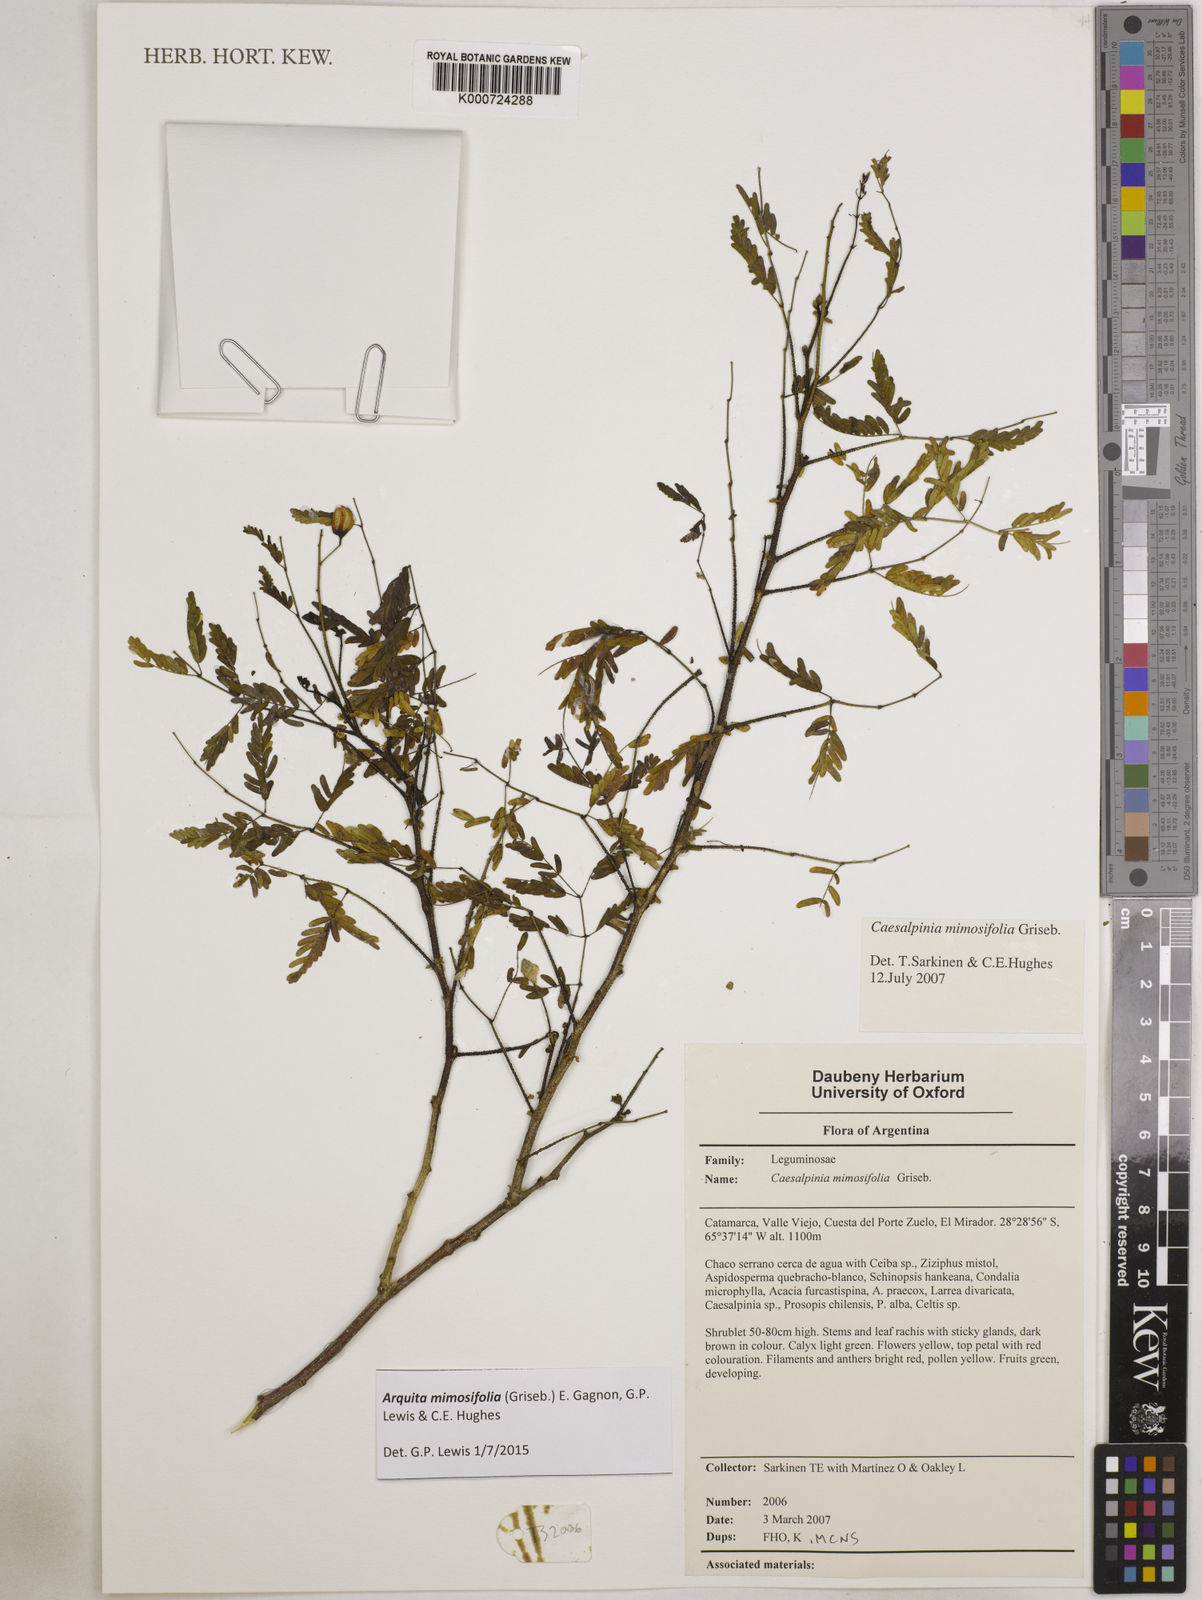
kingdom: Plantae
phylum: Tracheophyta
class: Magnoliopsida
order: Fabales
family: Fabaceae
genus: Arquita
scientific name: Arquita mimosifolia
